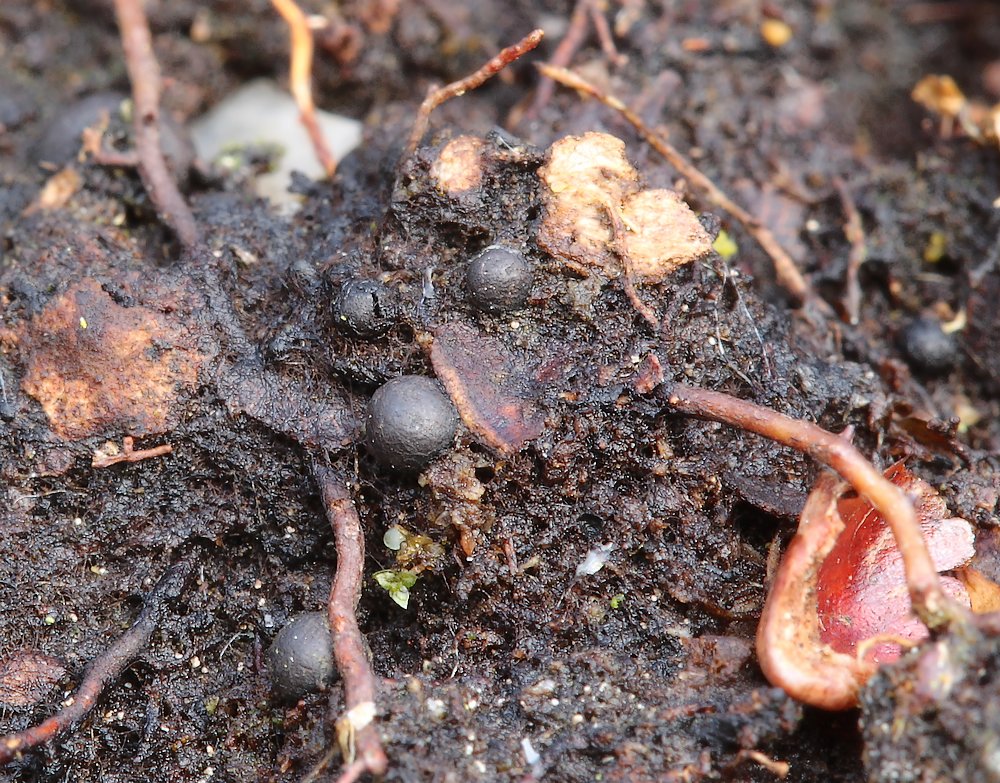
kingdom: Fungi
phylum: Ascomycota
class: Dothideomycetes
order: Mytilinidiales
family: Gloniaceae
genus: Cenococcum
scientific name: Cenococcum geophilum
